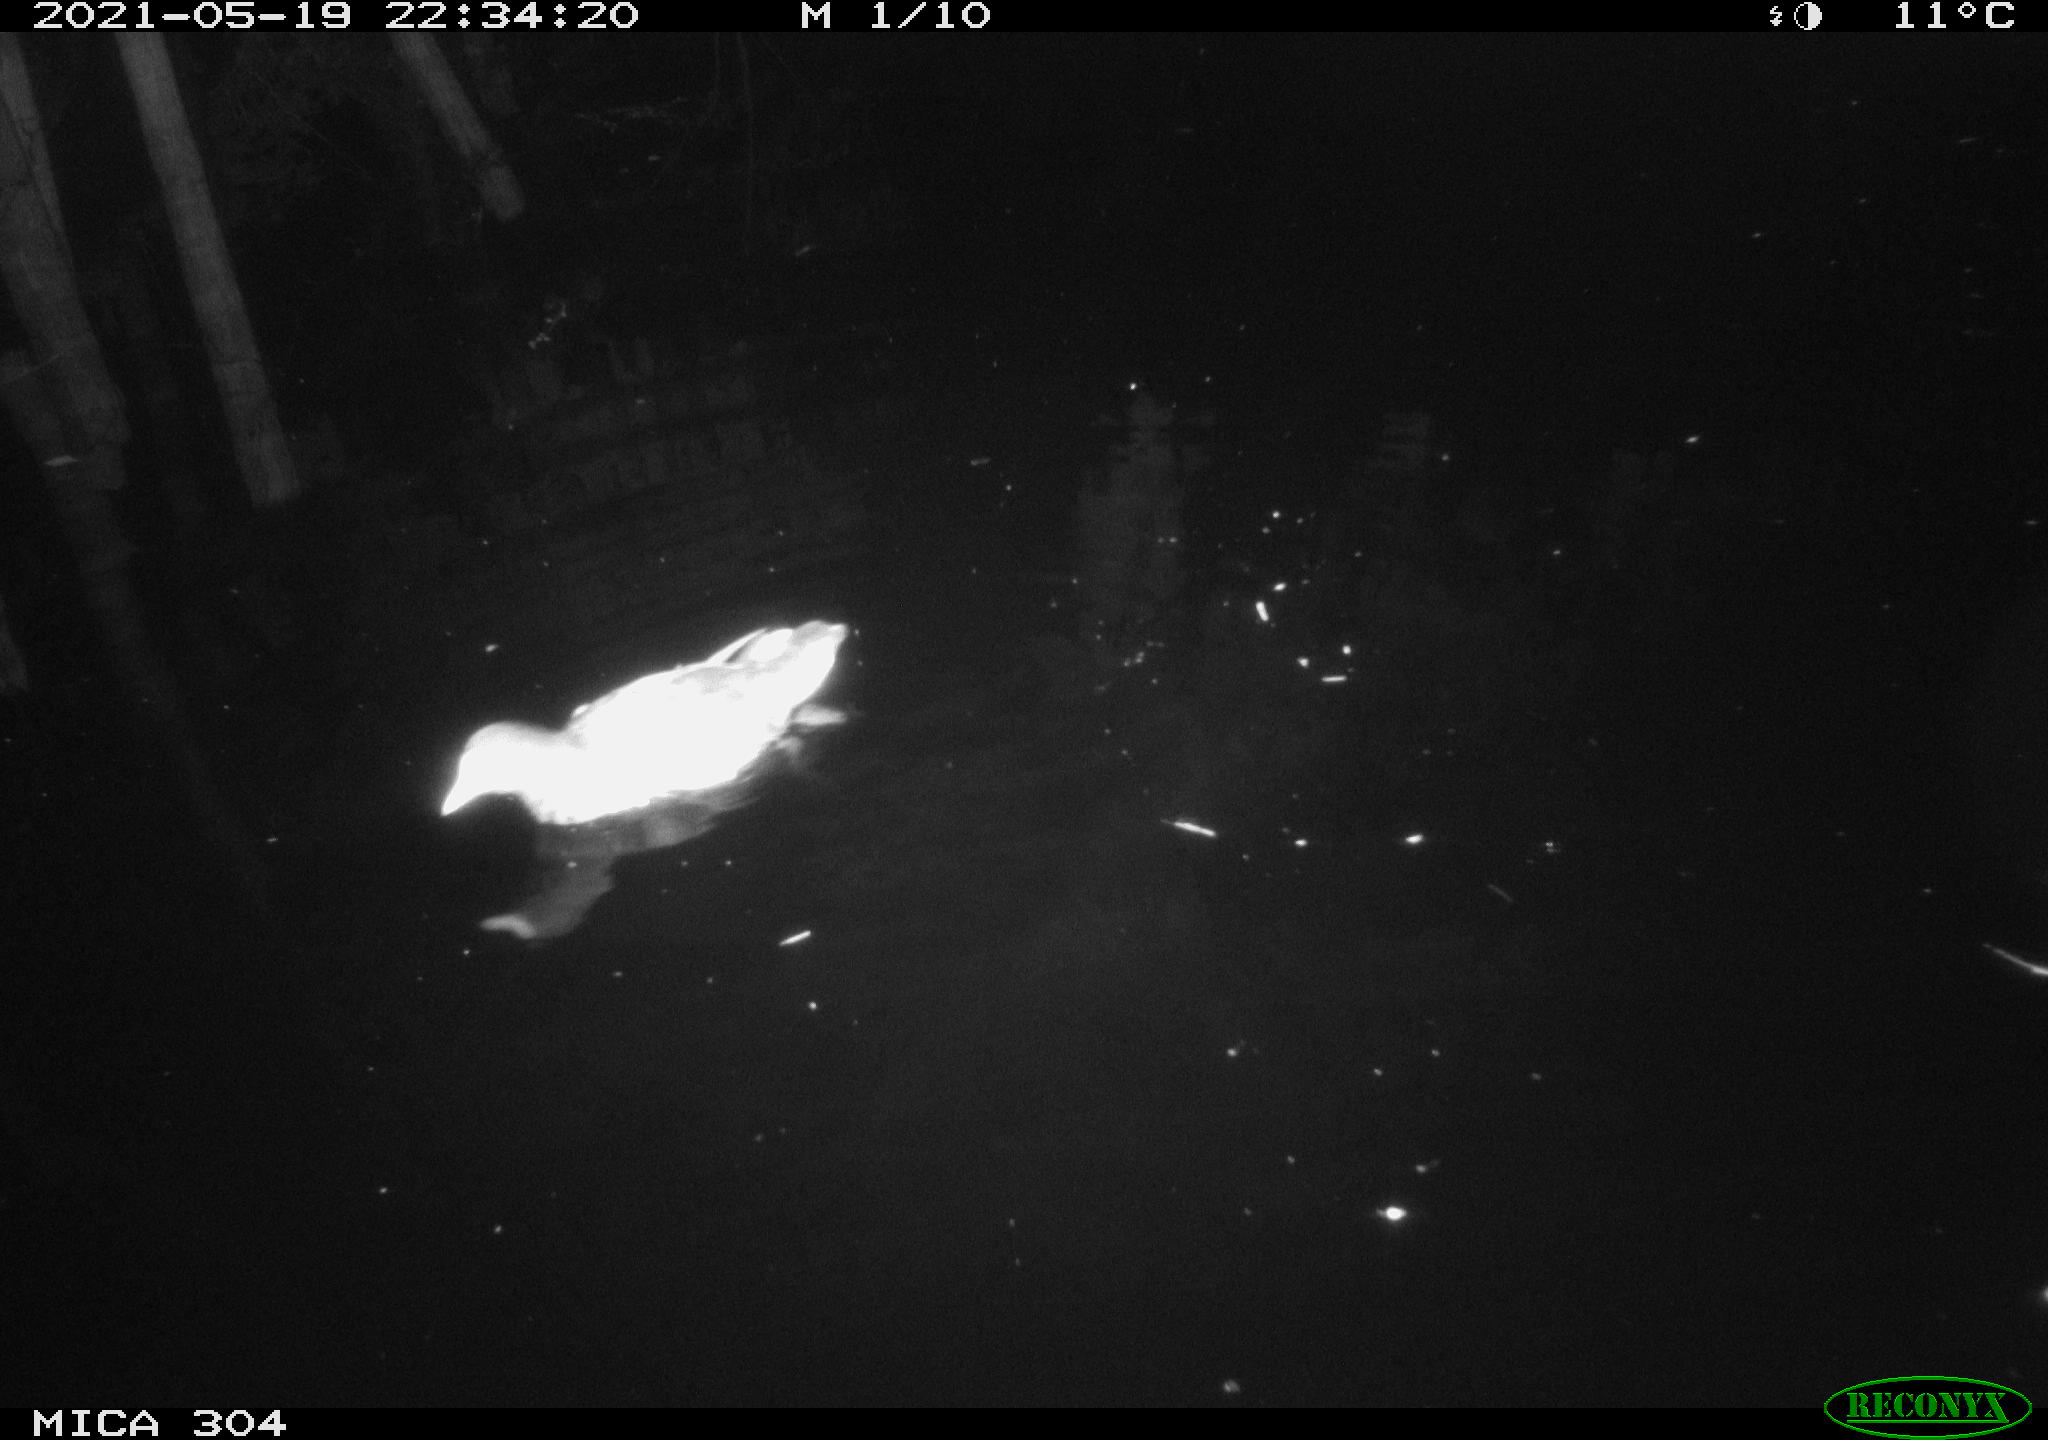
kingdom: Animalia
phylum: Chordata
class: Aves
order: Gruiformes
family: Rallidae
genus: Gallinula
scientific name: Gallinula chloropus
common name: Common moorhen
